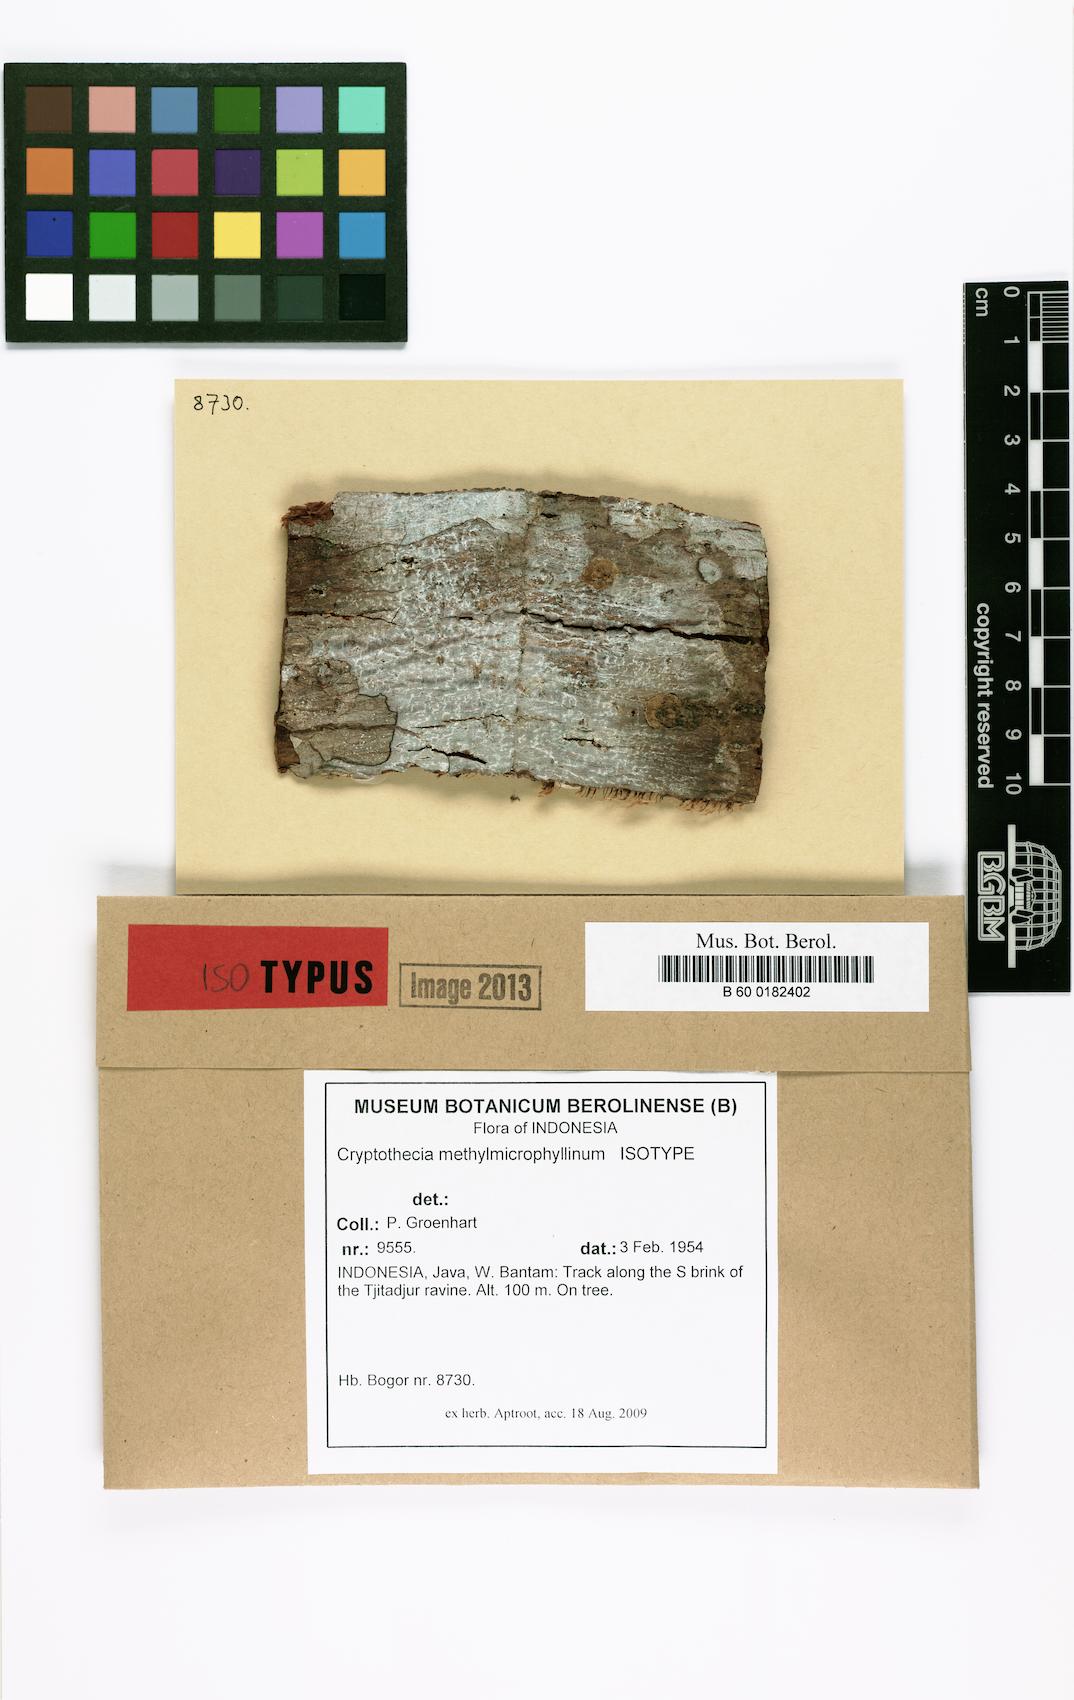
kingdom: Fungi
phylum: Ascomycota
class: Arthoniomycetes
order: Arthoniales
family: Arthoniaceae
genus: Cryptothecia
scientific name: Cryptothecia methylmicrophyllinica
